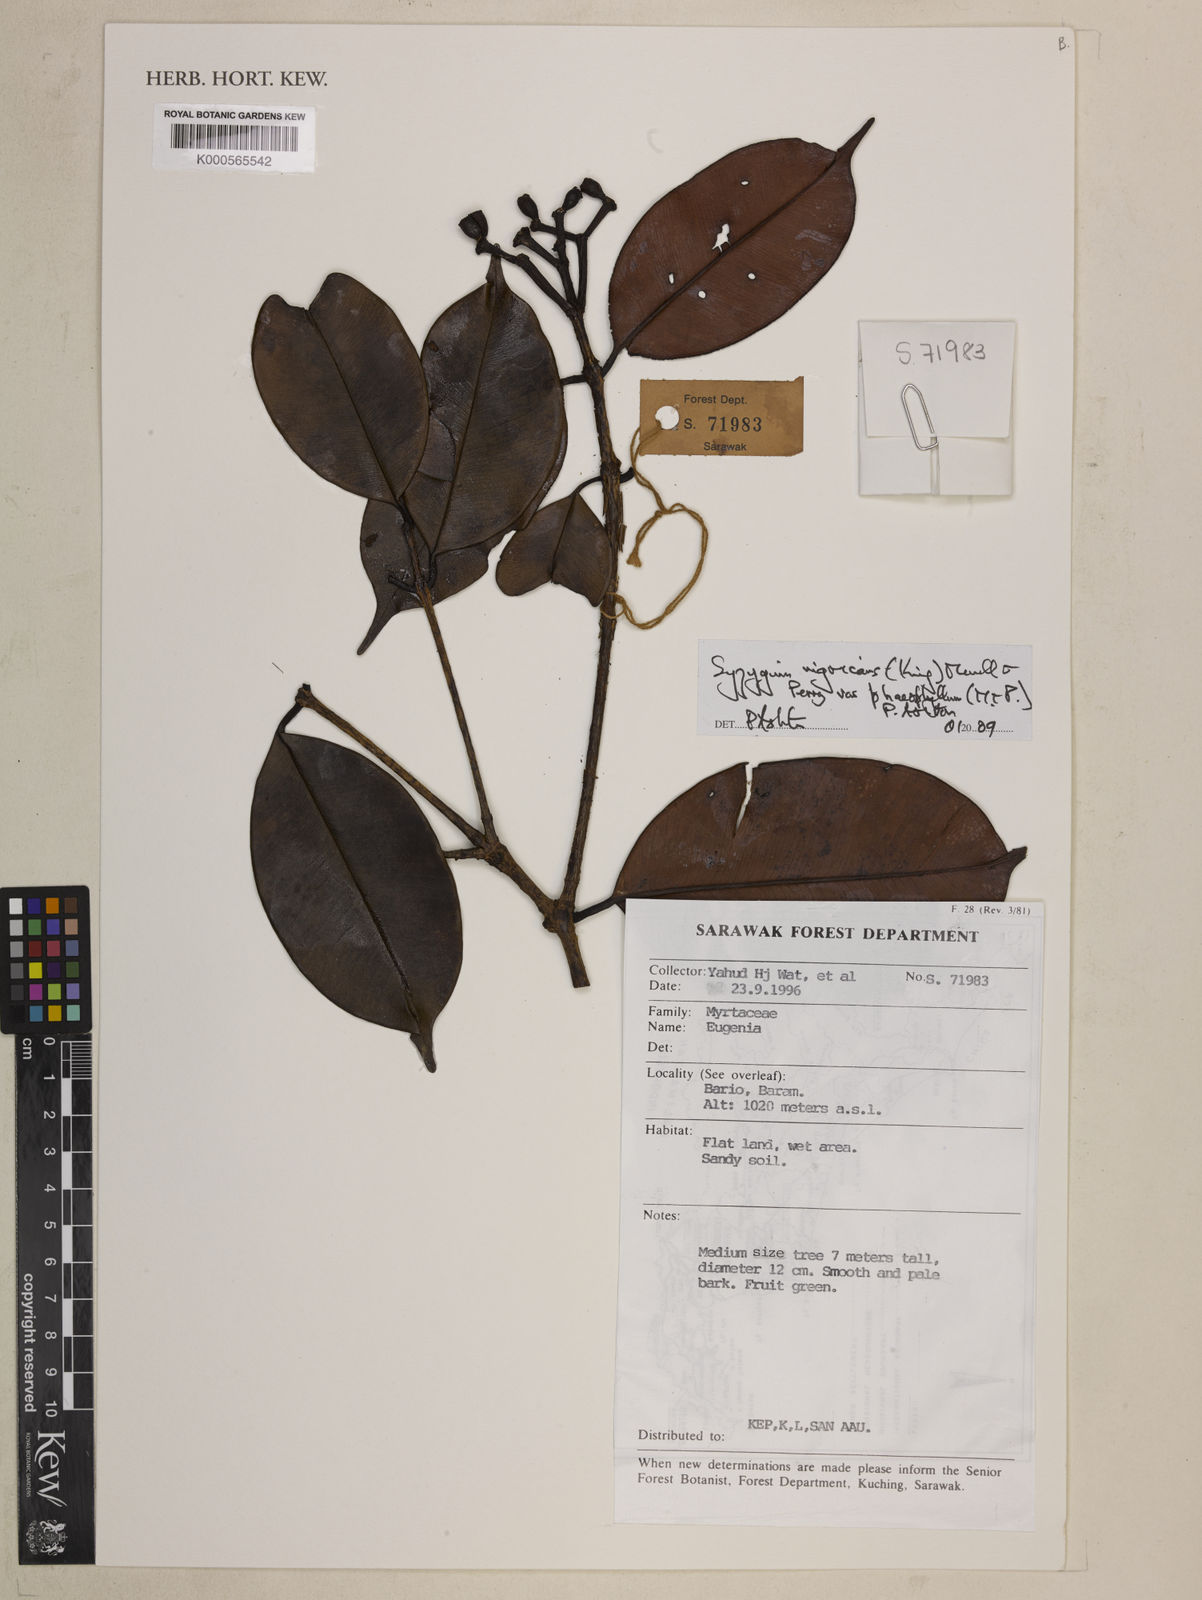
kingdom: Plantae
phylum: Tracheophyta
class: Magnoliopsida
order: Myrtales
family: Myrtaceae
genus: Syzygium
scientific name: Syzygium nigricans
